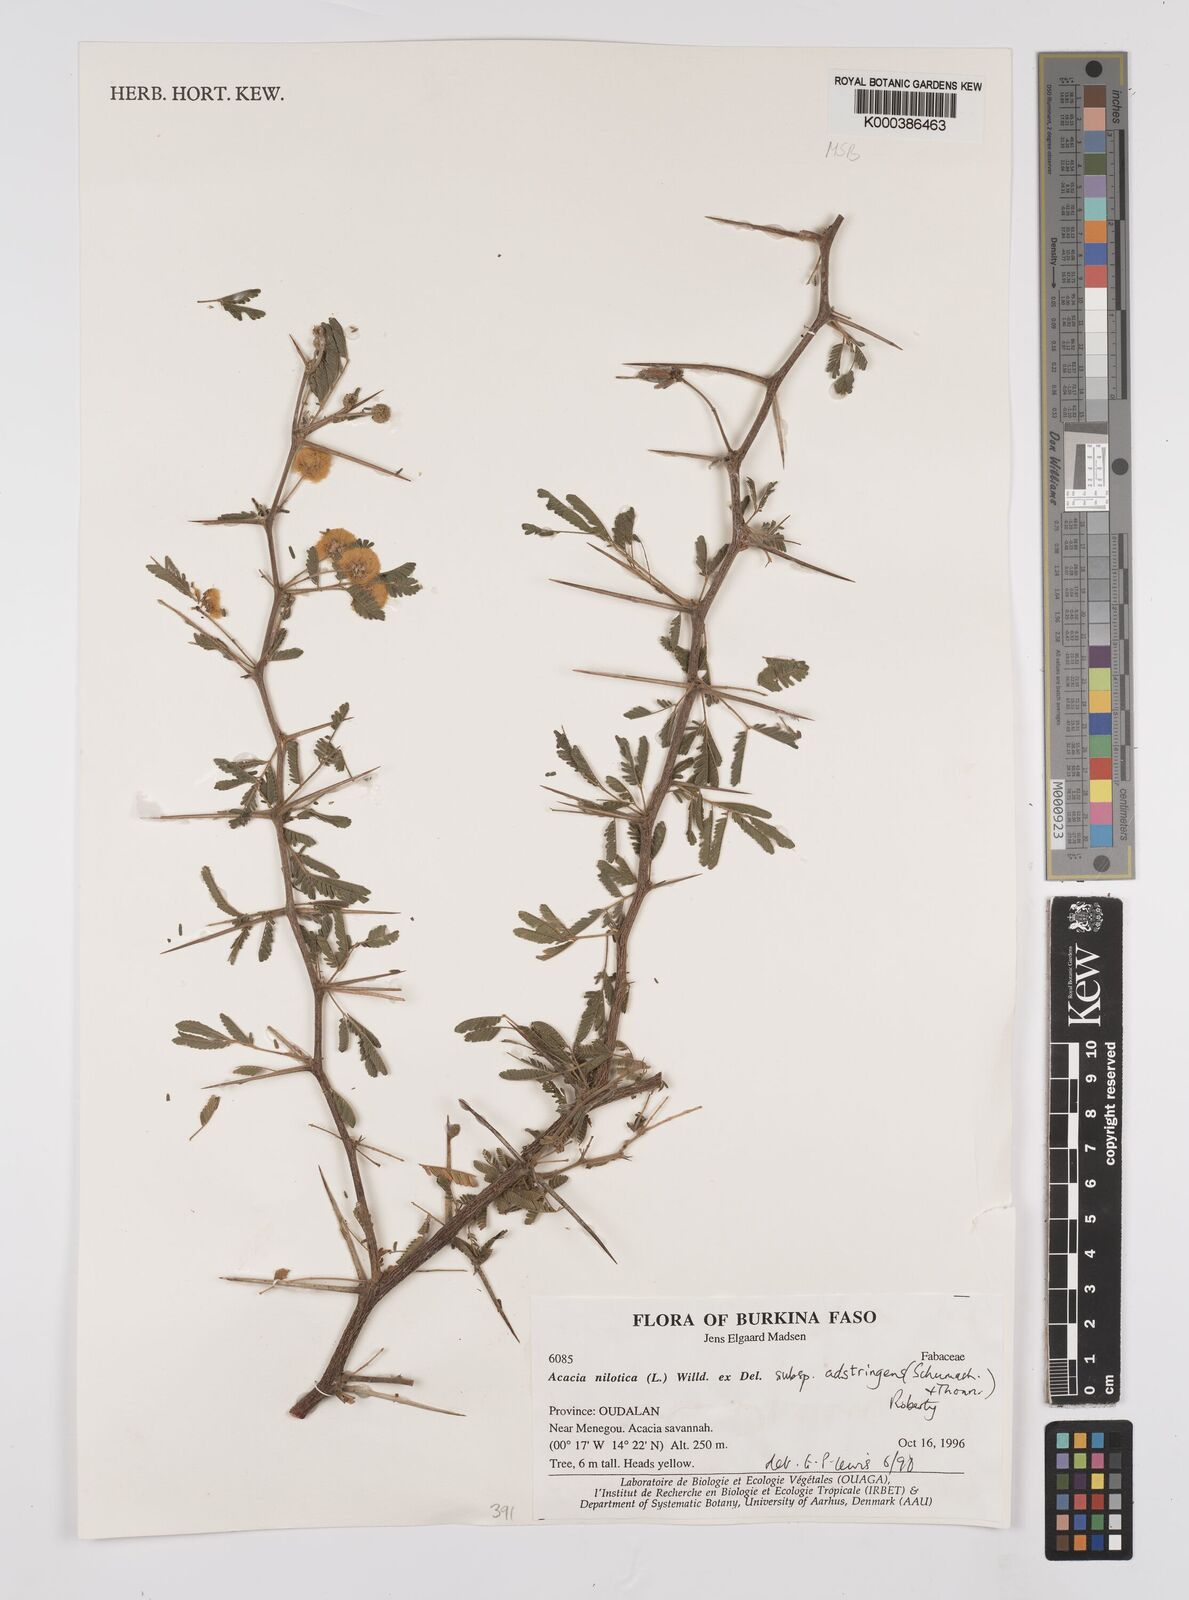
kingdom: Plantae
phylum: Tracheophyta
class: Magnoliopsida
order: Fabales
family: Fabaceae
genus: Vachellia
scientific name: Vachellia nilotica
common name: Arabic gumtree
